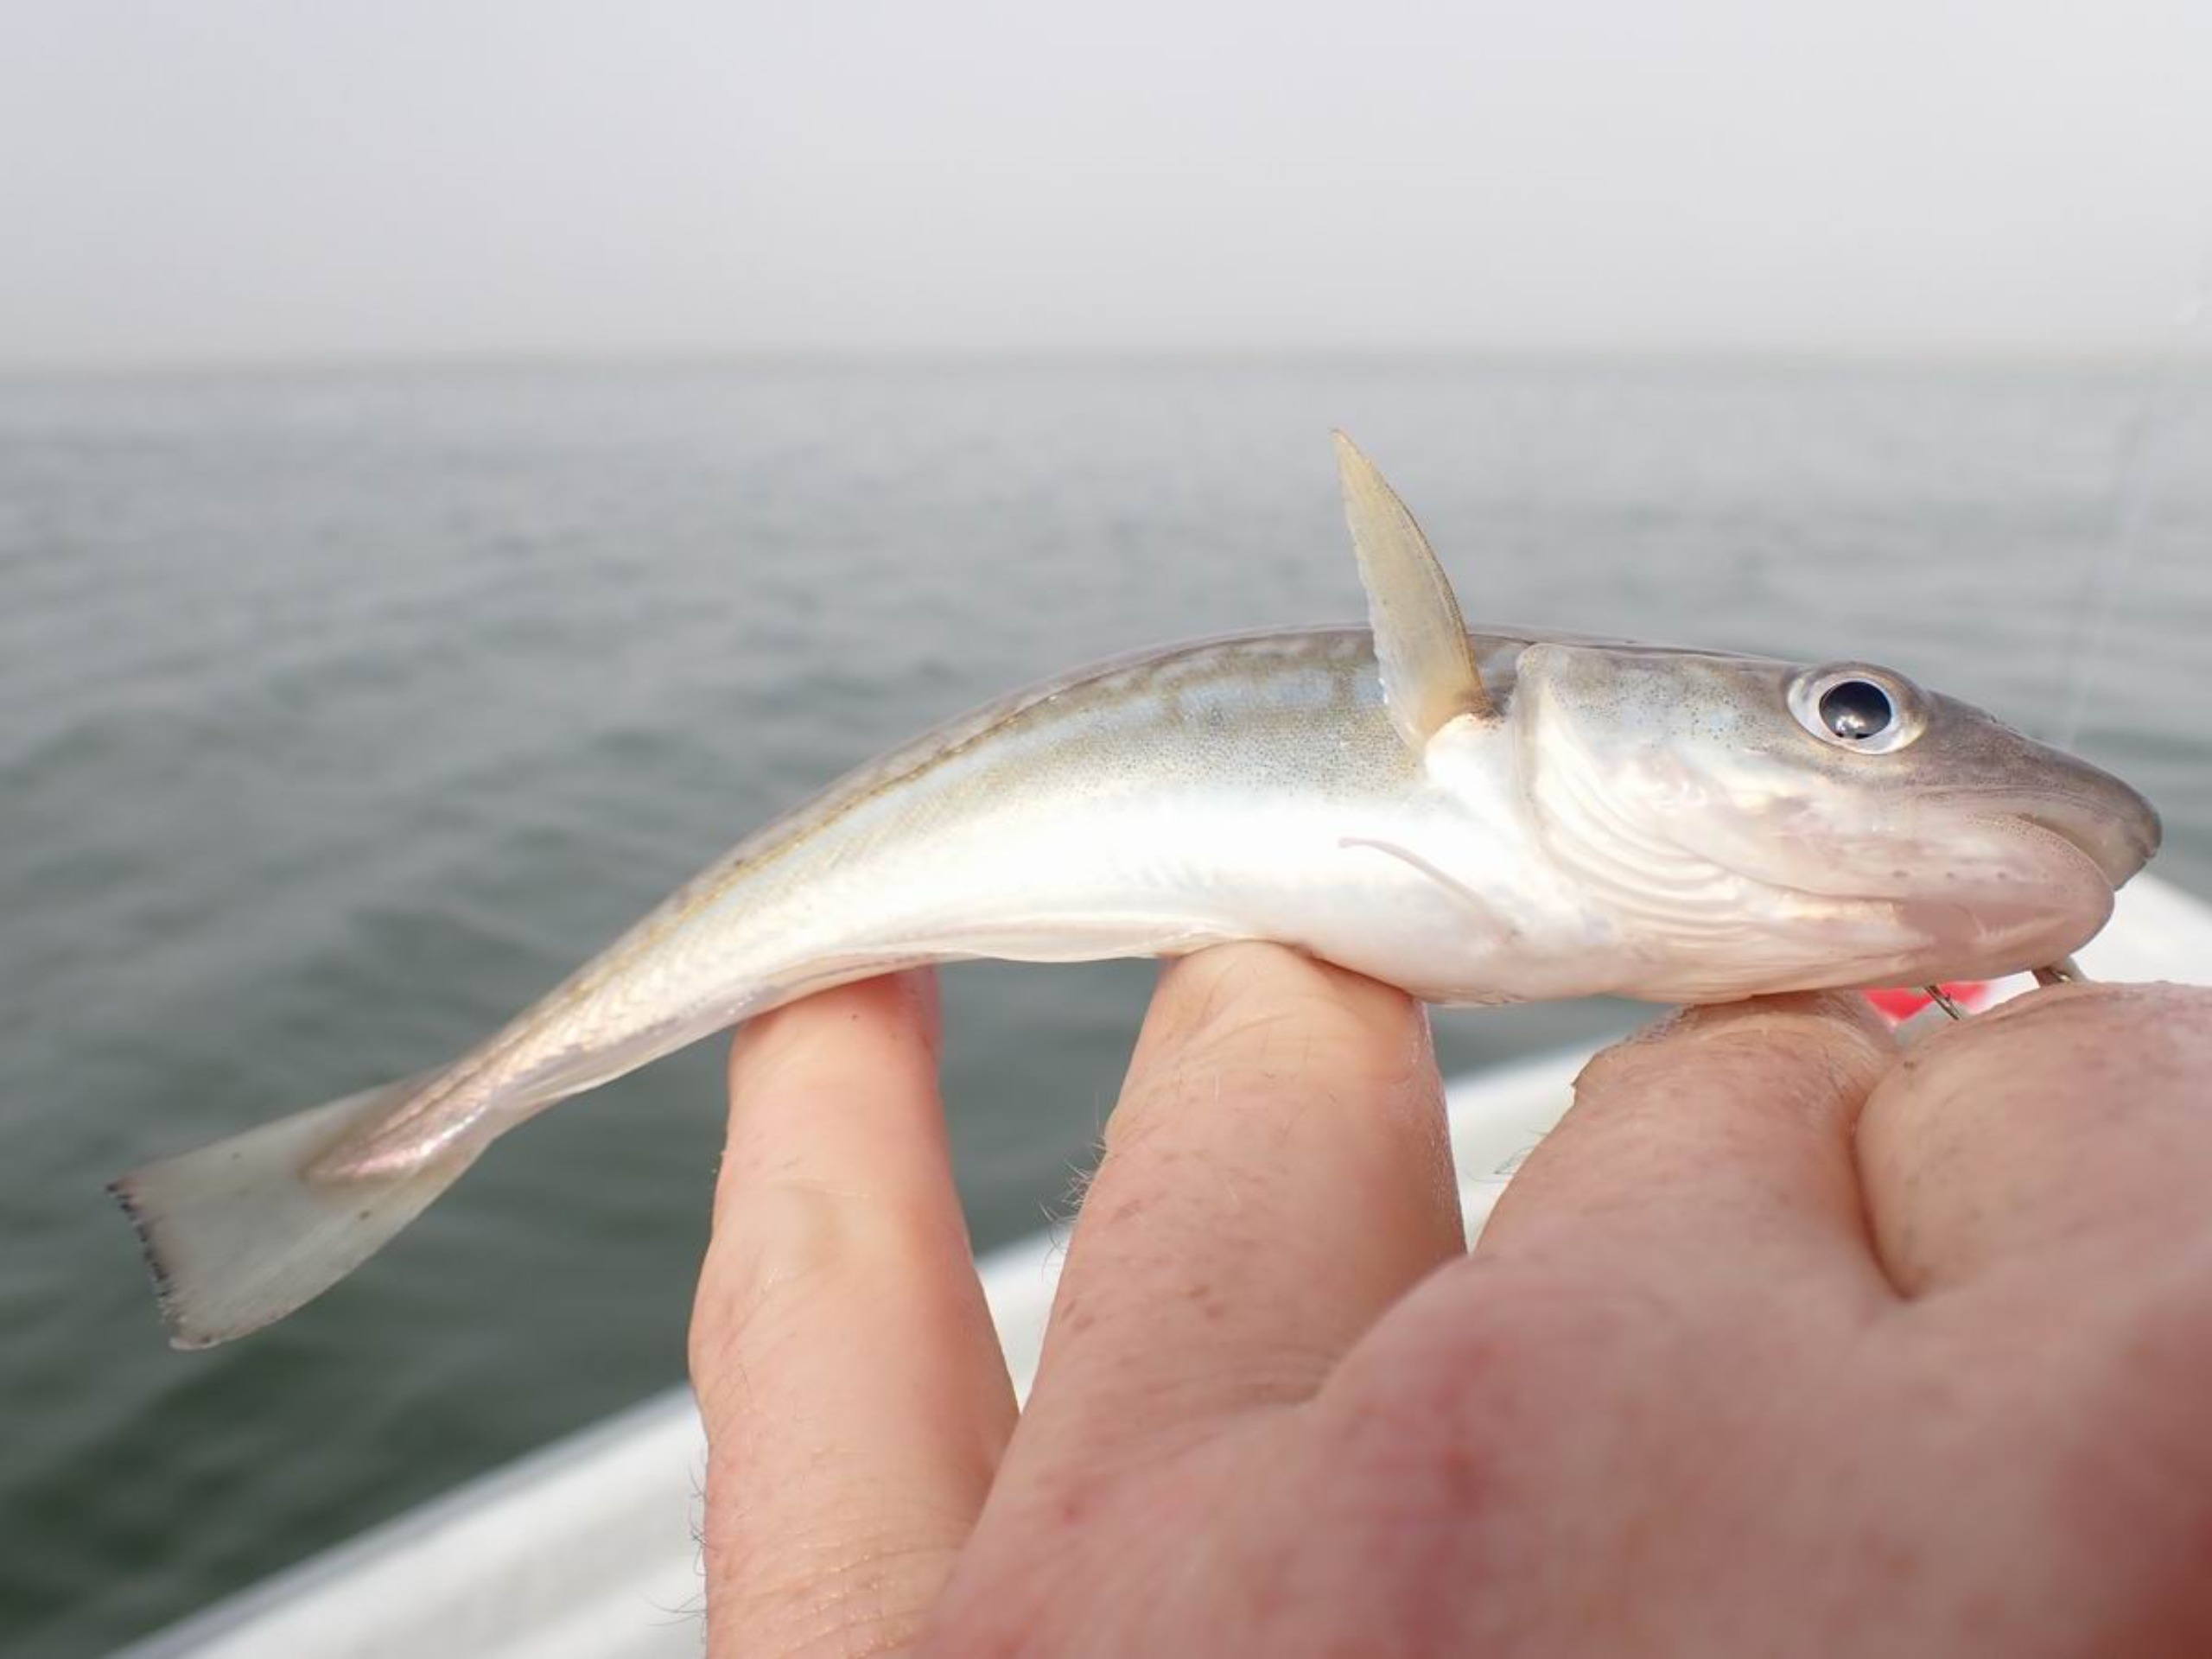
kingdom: Animalia
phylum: Chordata
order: Gadiformes
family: Gadidae
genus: Merlangius
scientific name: Merlangius merlangus
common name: Hvilling
